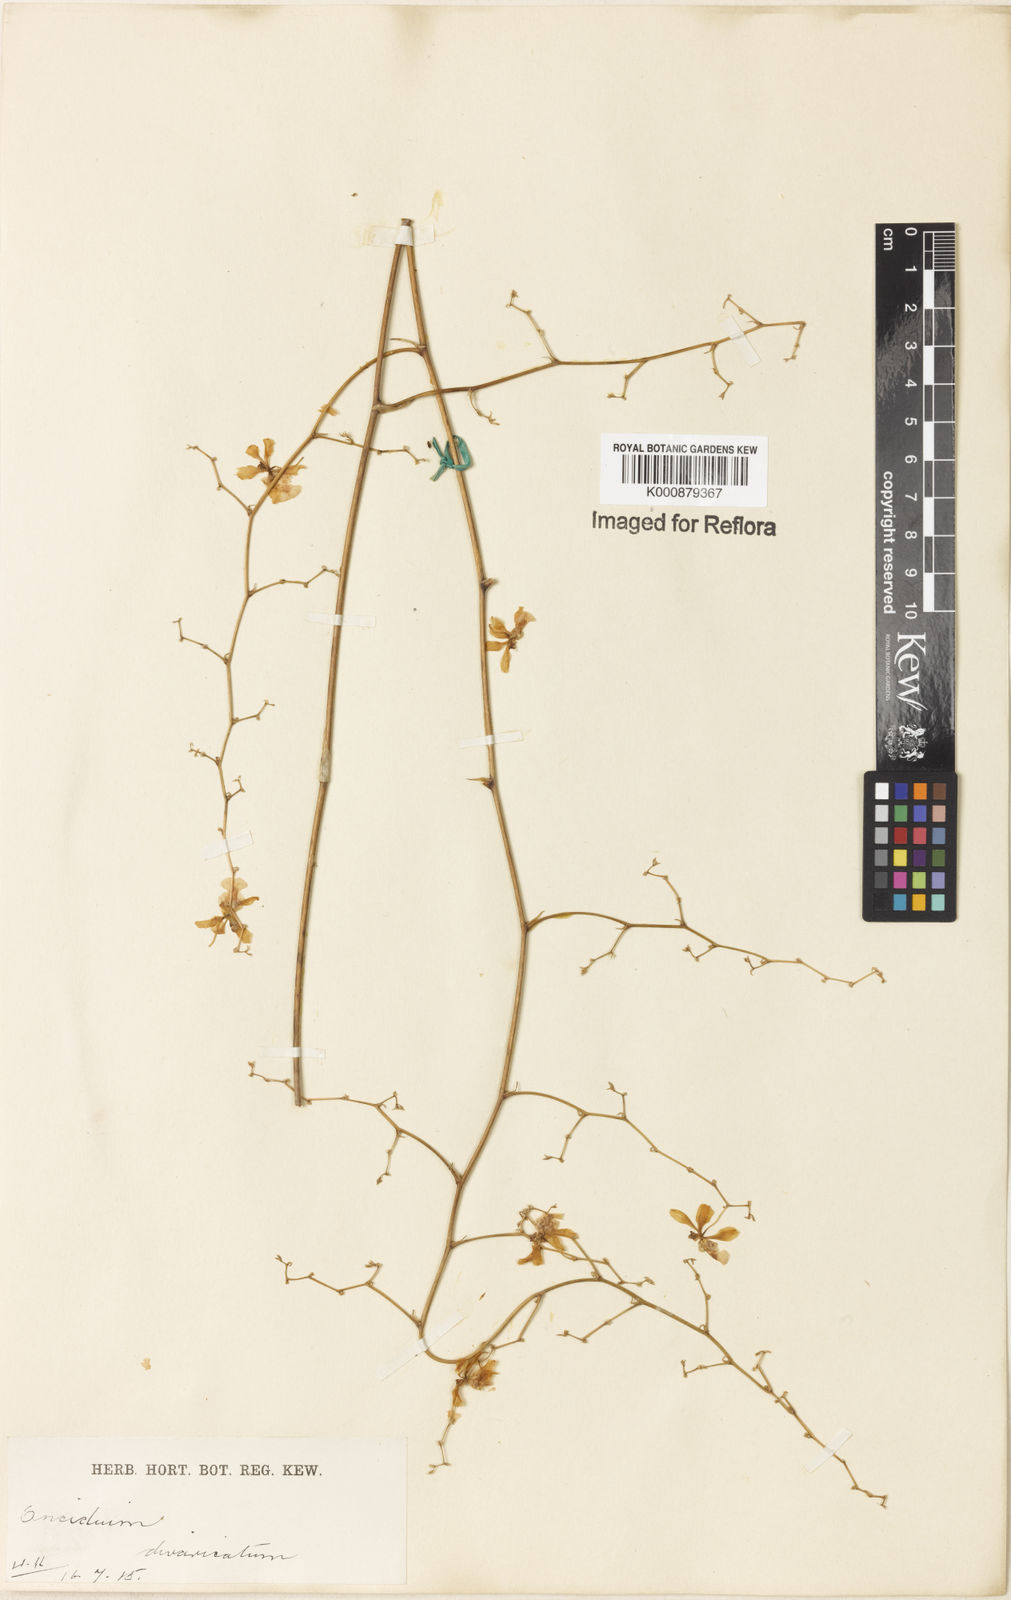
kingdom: Plantae
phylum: Tracheophyta
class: Liliopsida
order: Asparagales
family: Orchidaceae
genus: Grandiphyllum
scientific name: Grandiphyllum divaricatum
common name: Mule-ear orchid
